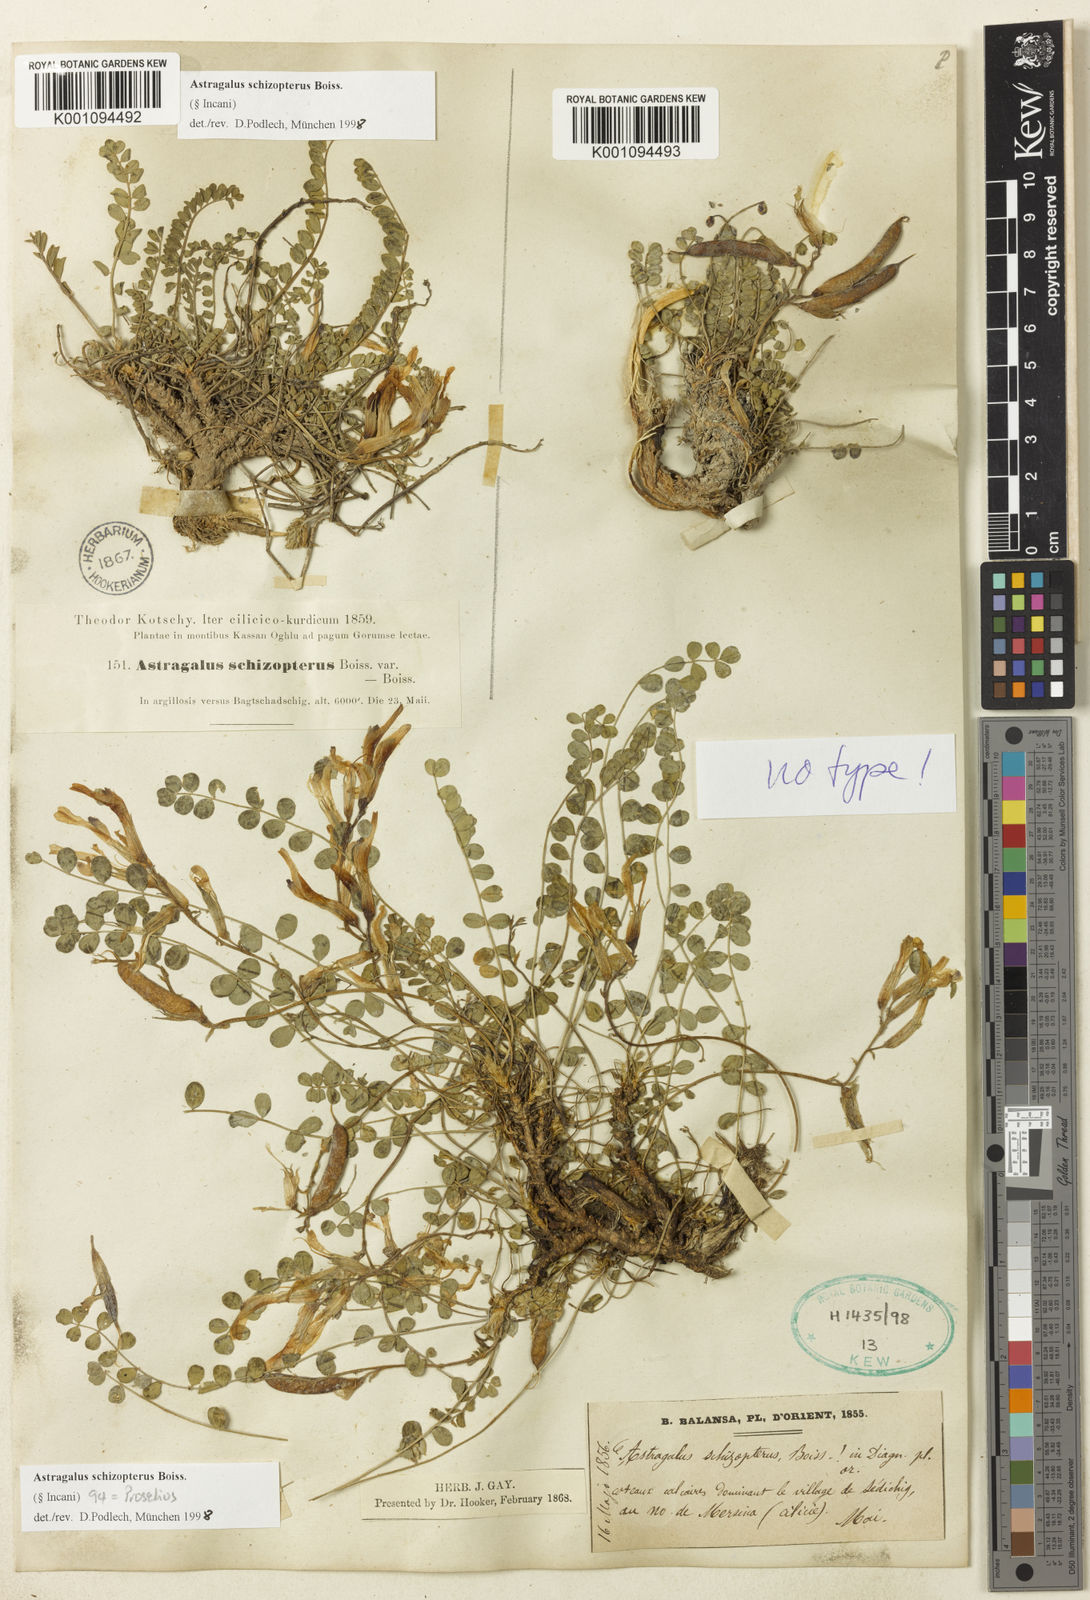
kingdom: Plantae
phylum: Tracheophyta
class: Magnoliopsida
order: Fabales
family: Fabaceae
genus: Astragalus
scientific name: Astragalus
